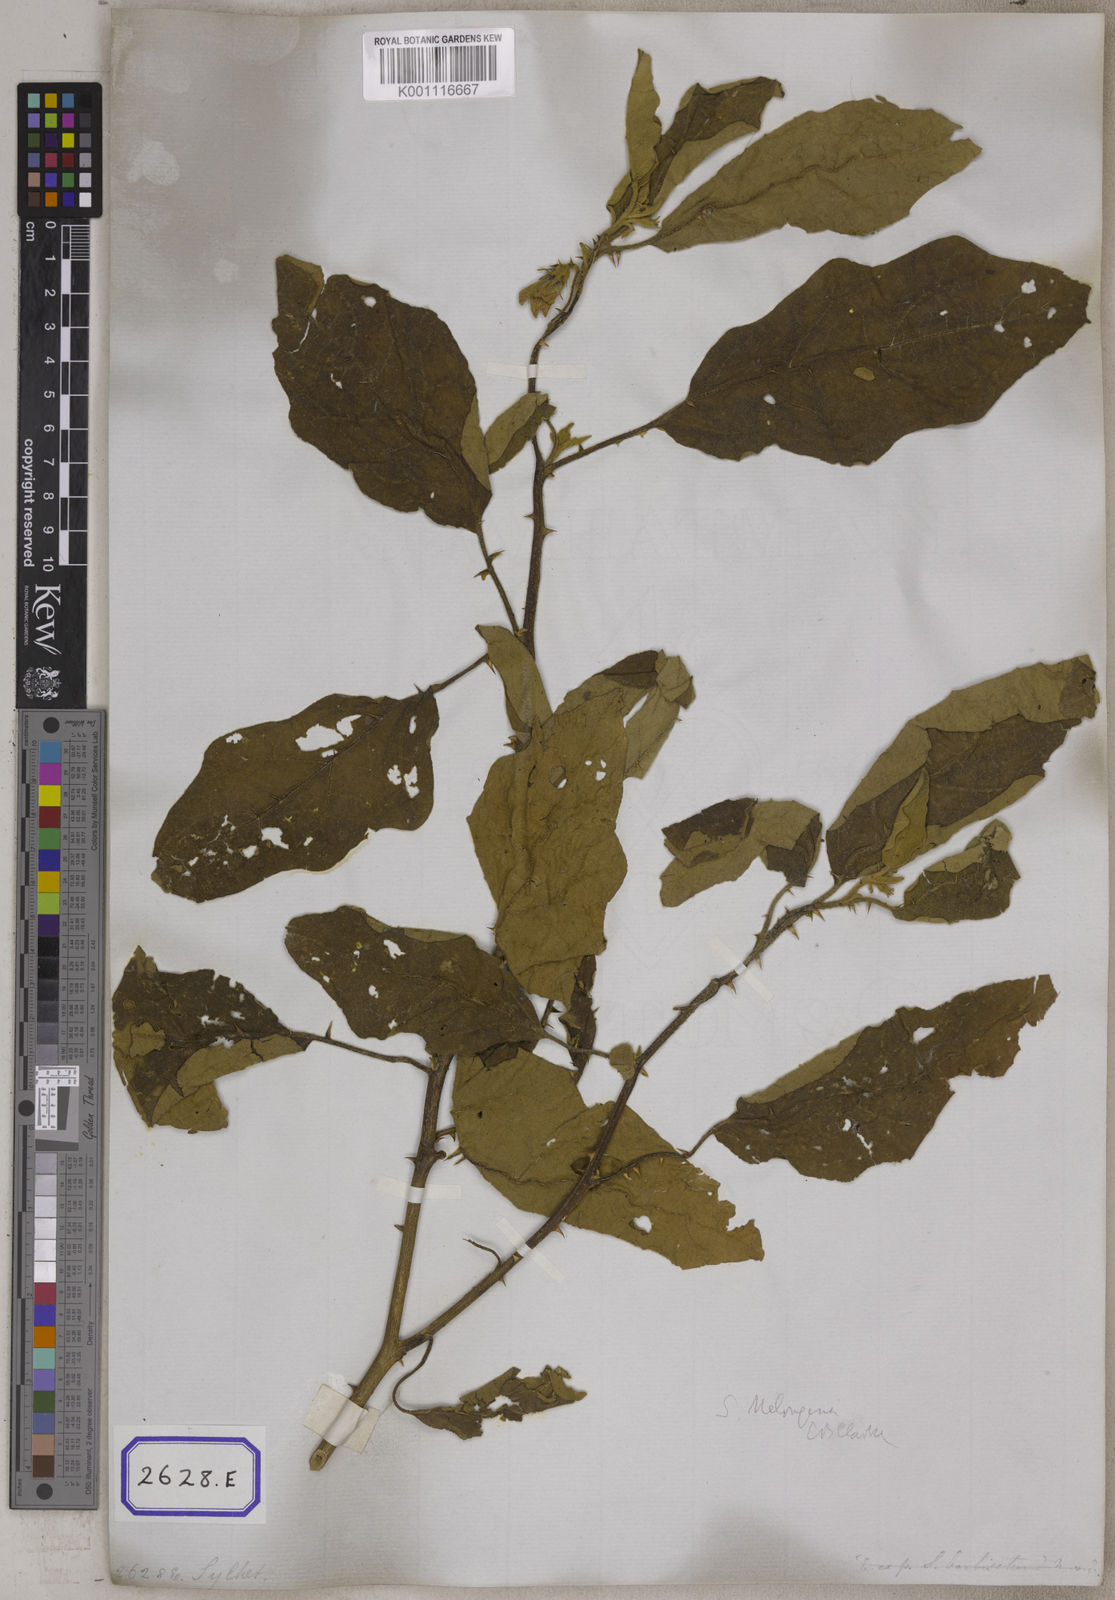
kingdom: Plantae
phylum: Tracheophyta
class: Magnoliopsida
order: Solanales
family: Solanaceae
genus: Solanum
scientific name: Solanum melongena
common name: Eggplant
